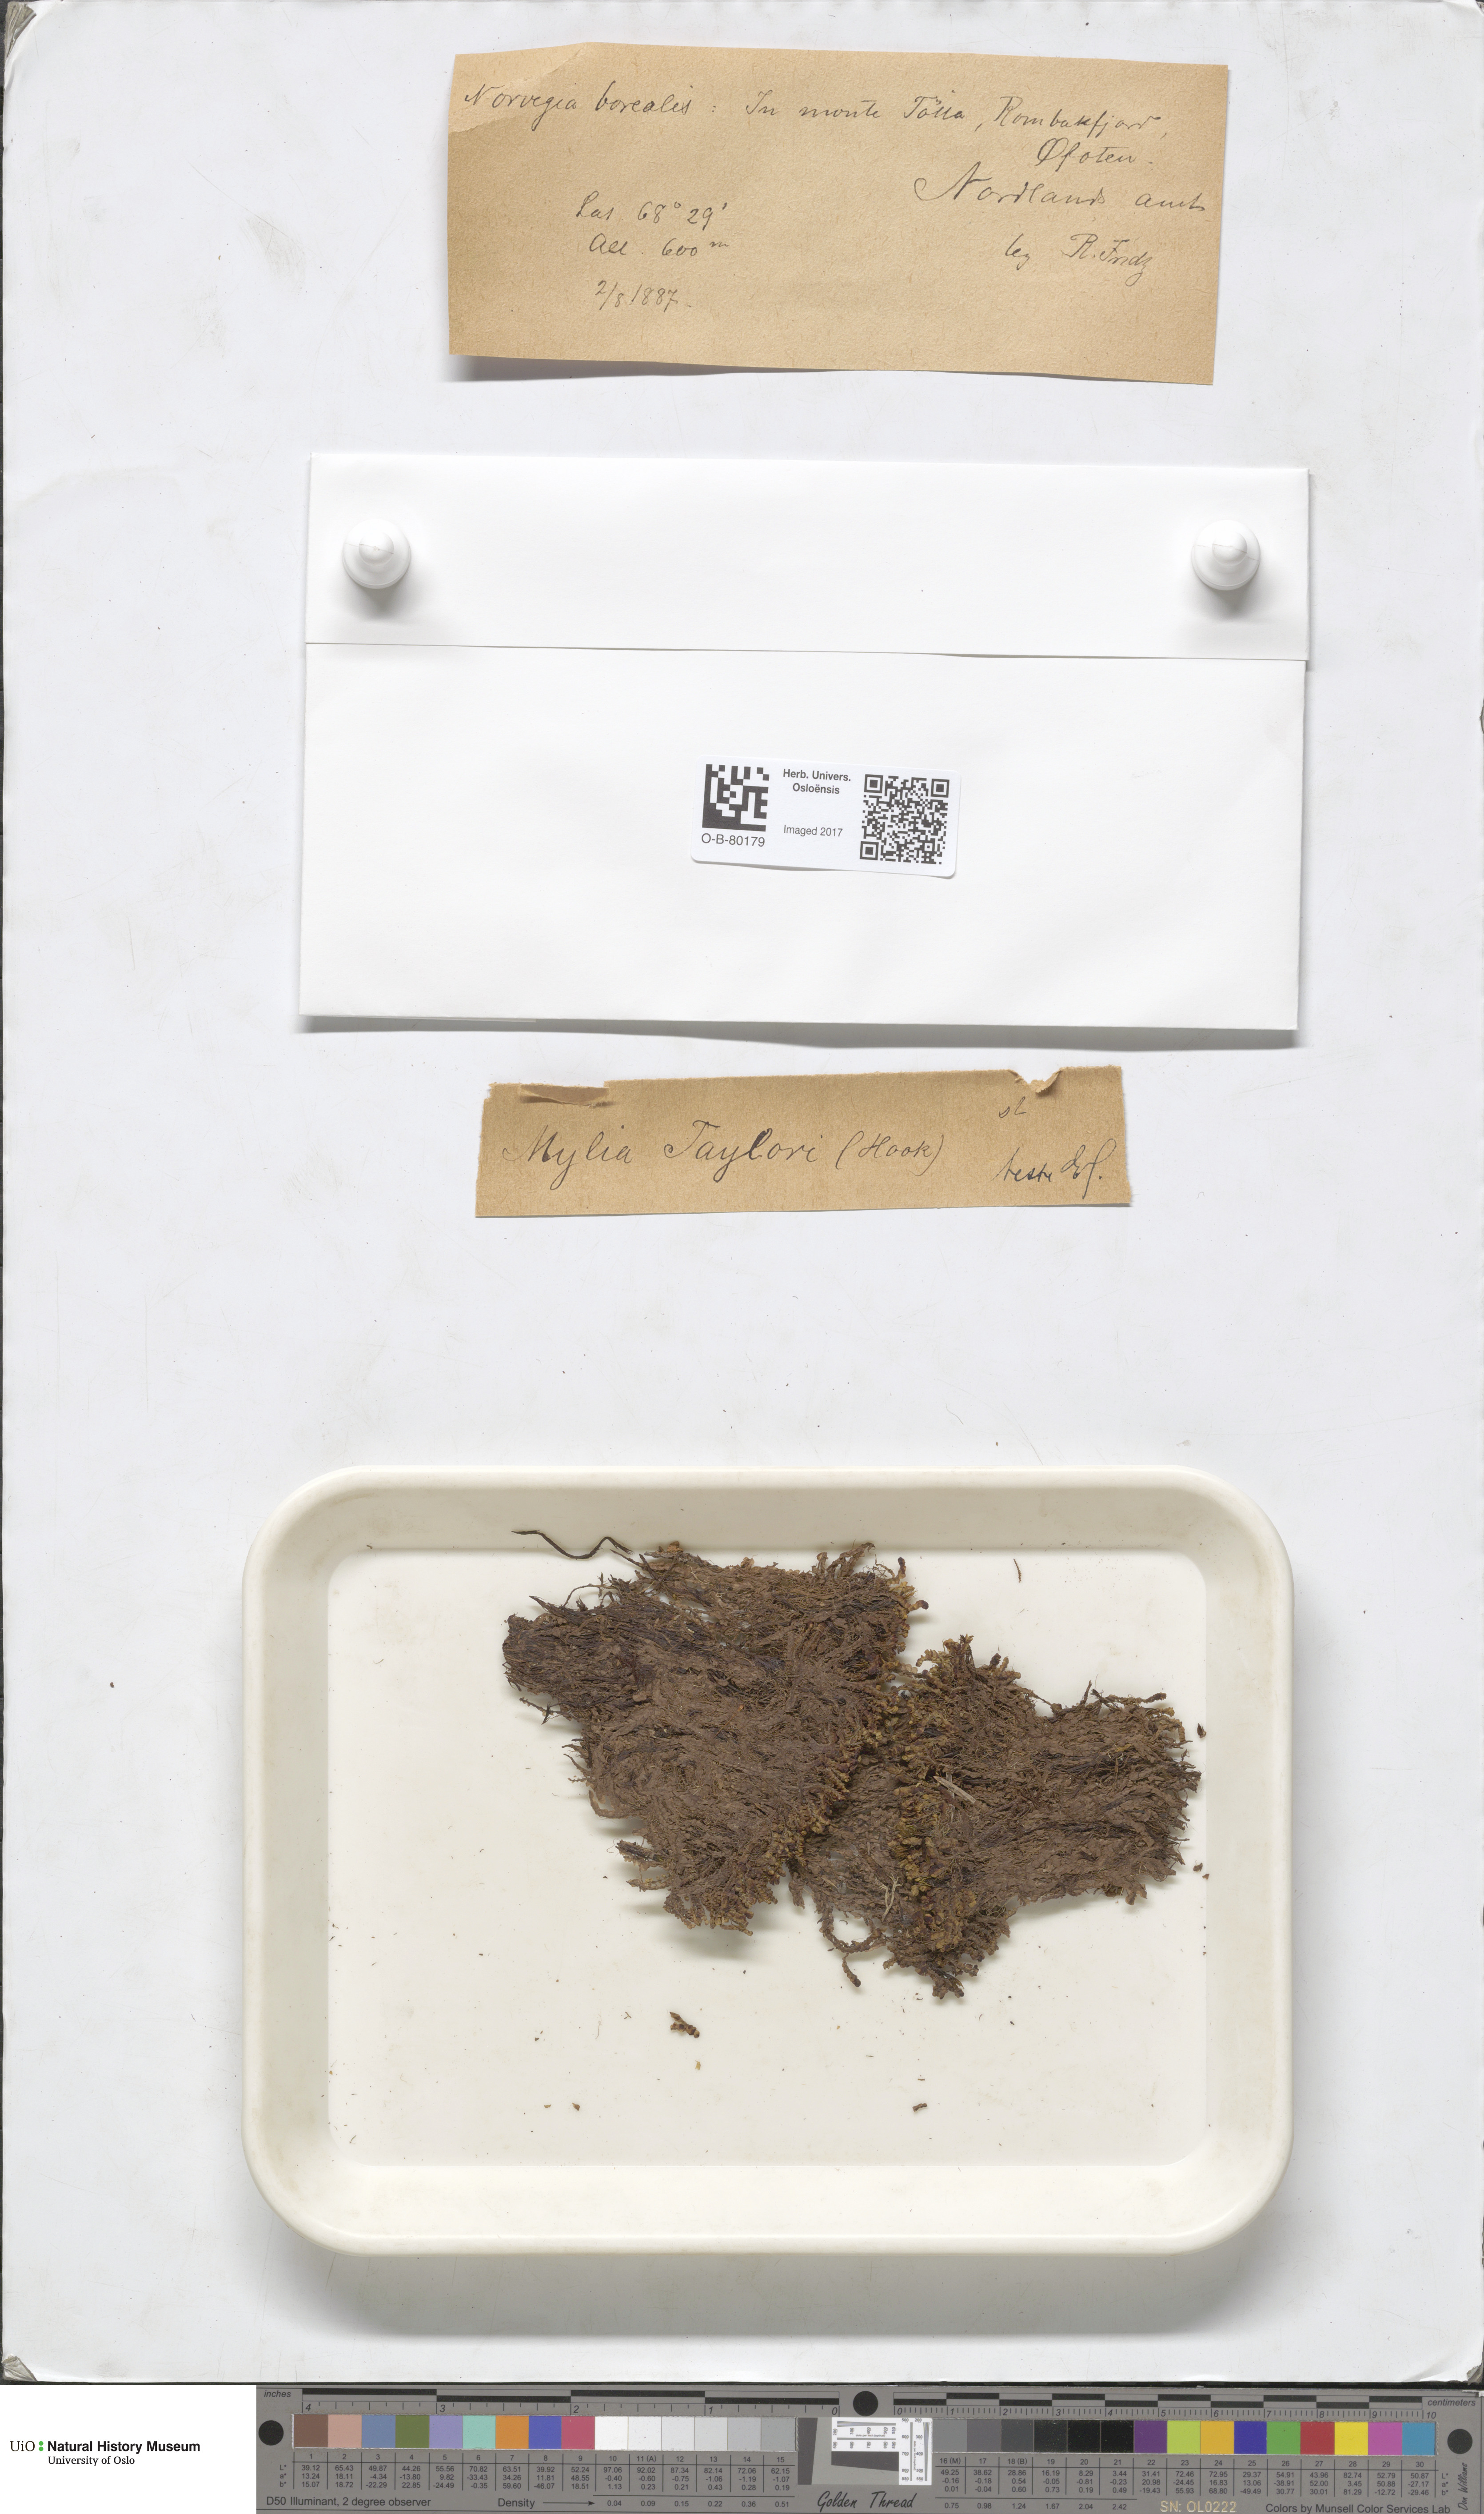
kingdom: Plantae
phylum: Marchantiophyta
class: Jungermanniopsida
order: Jungermanniales
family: Myliaceae
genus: Mylia
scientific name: Mylia taylorii
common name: Taylor s flapwort
